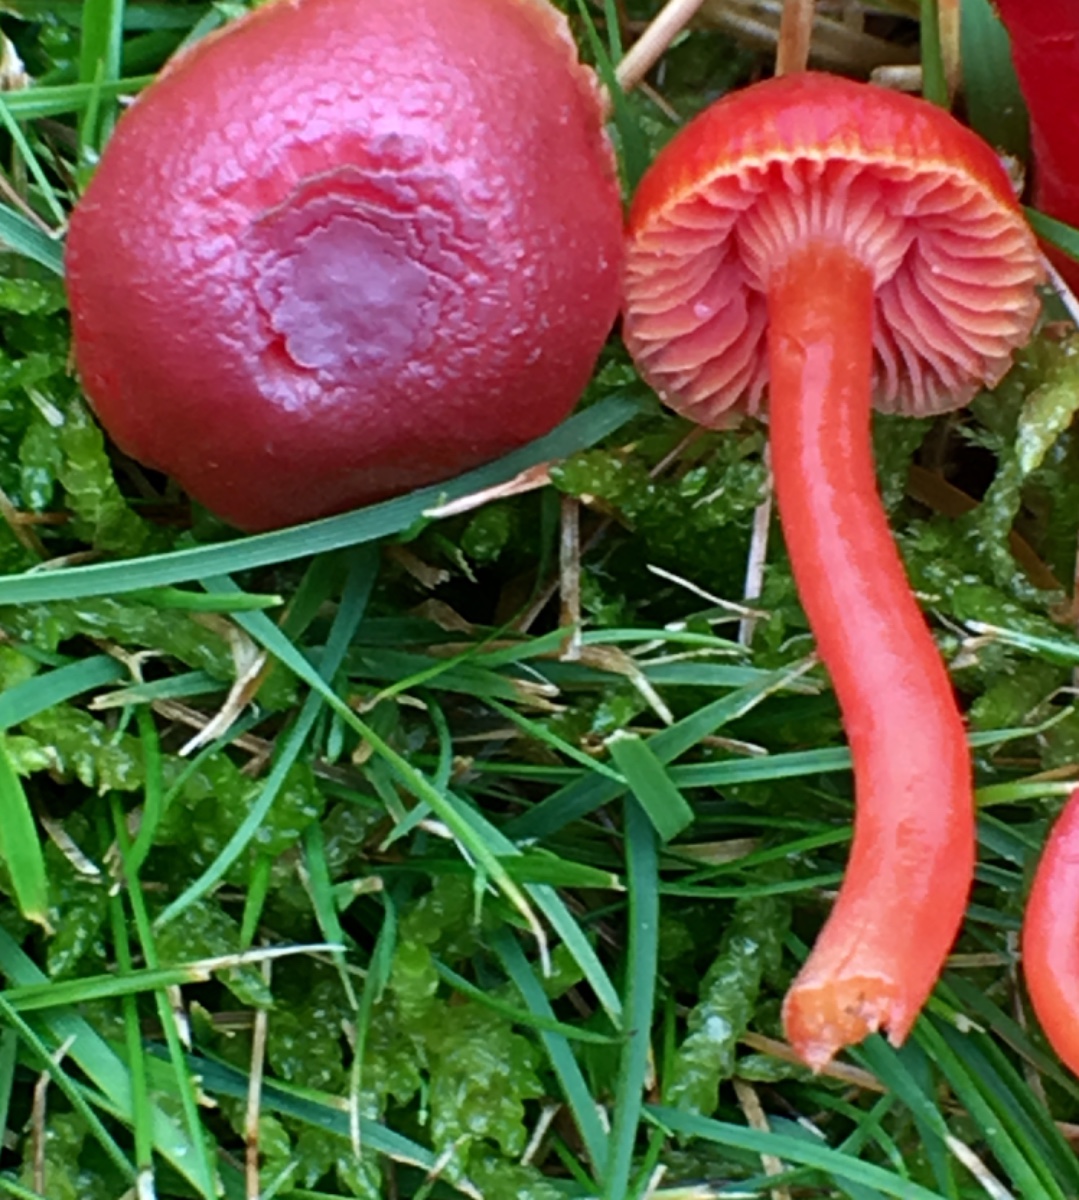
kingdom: Fungi
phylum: Basidiomycota
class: Agaricomycetes
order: Agaricales
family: Hygrophoraceae
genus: Hygrocybe
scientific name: Hygrocybe phaeococcinea
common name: sortdugget vokshat
